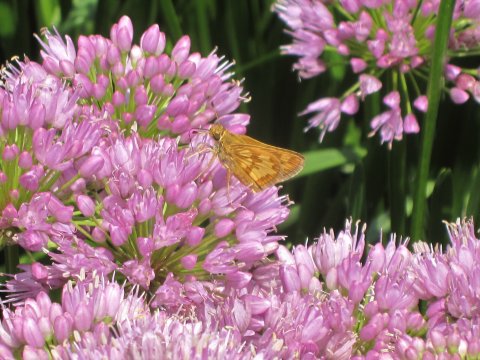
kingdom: Animalia
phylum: Arthropoda
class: Insecta
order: Lepidoptera
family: Hesperiidae
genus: Polites
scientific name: Polites coras
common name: Peck's Skipper
